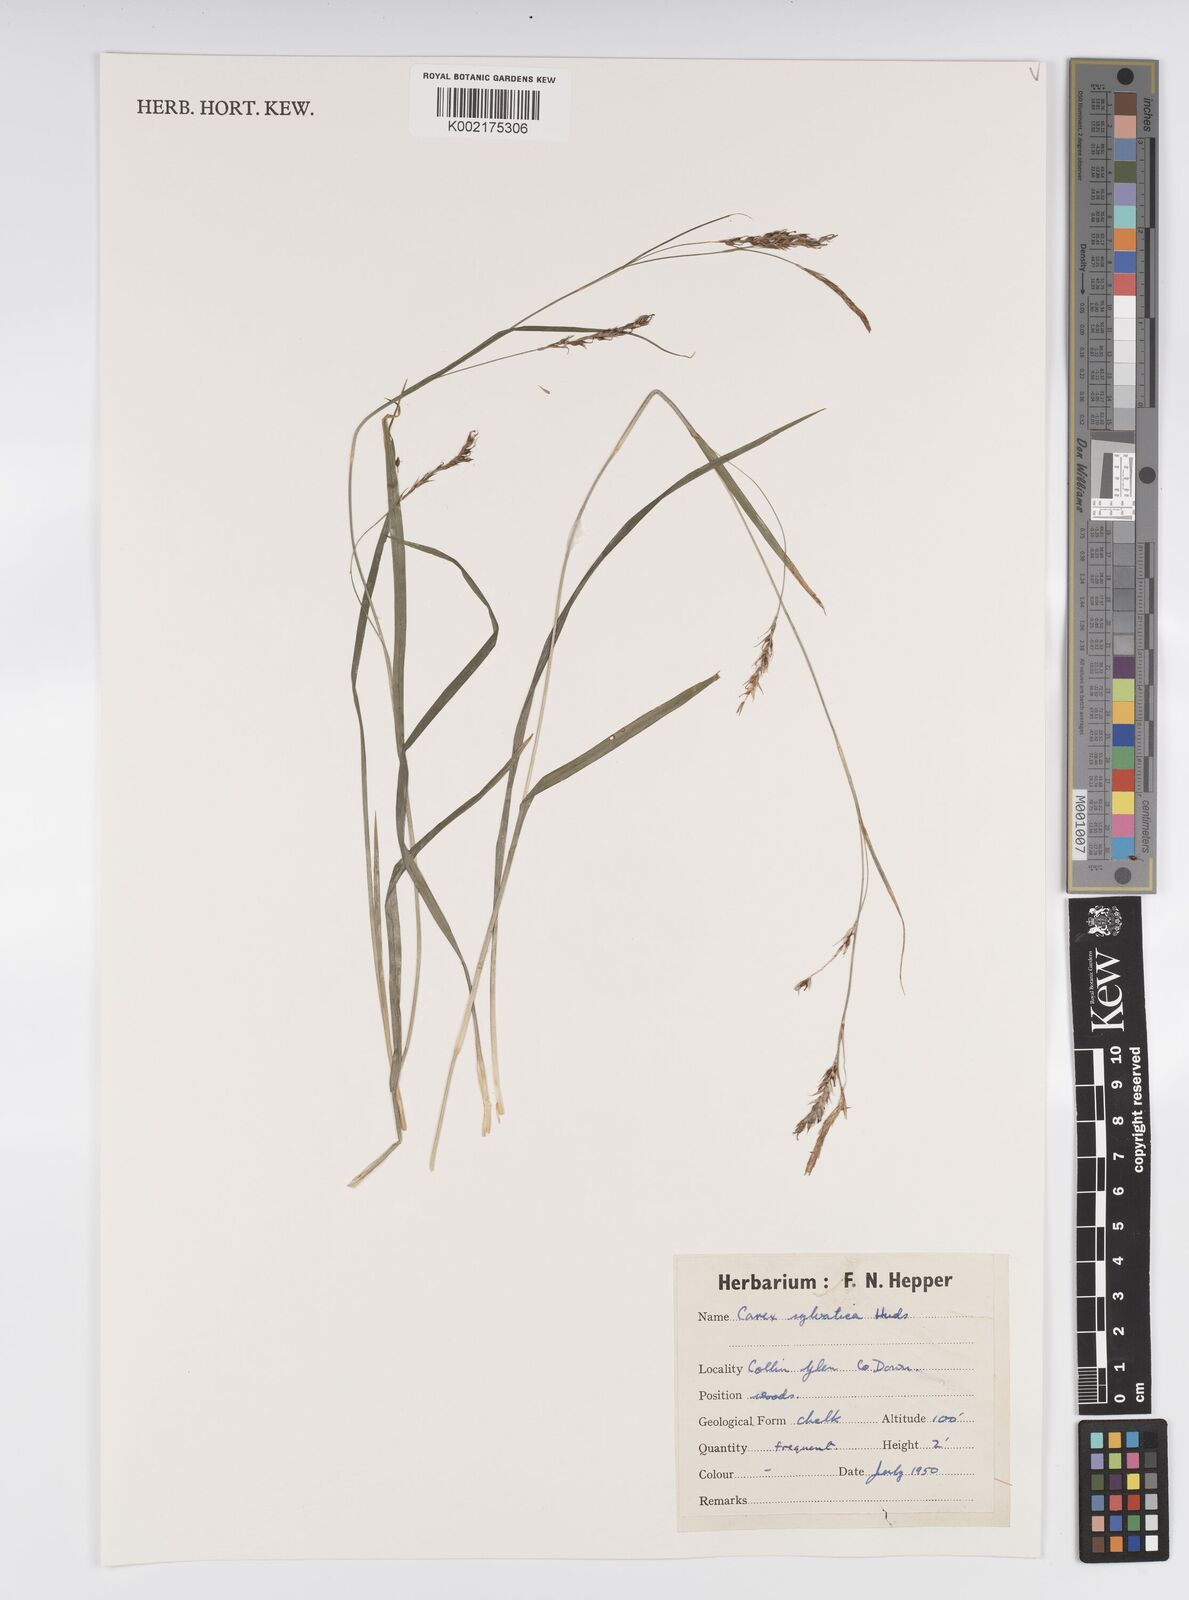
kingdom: Plantae
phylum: Tracheophyta
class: Liliopsida
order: Poales
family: Cyperaceae
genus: Carex
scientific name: Carex sylvatica
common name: Wood-sedge
